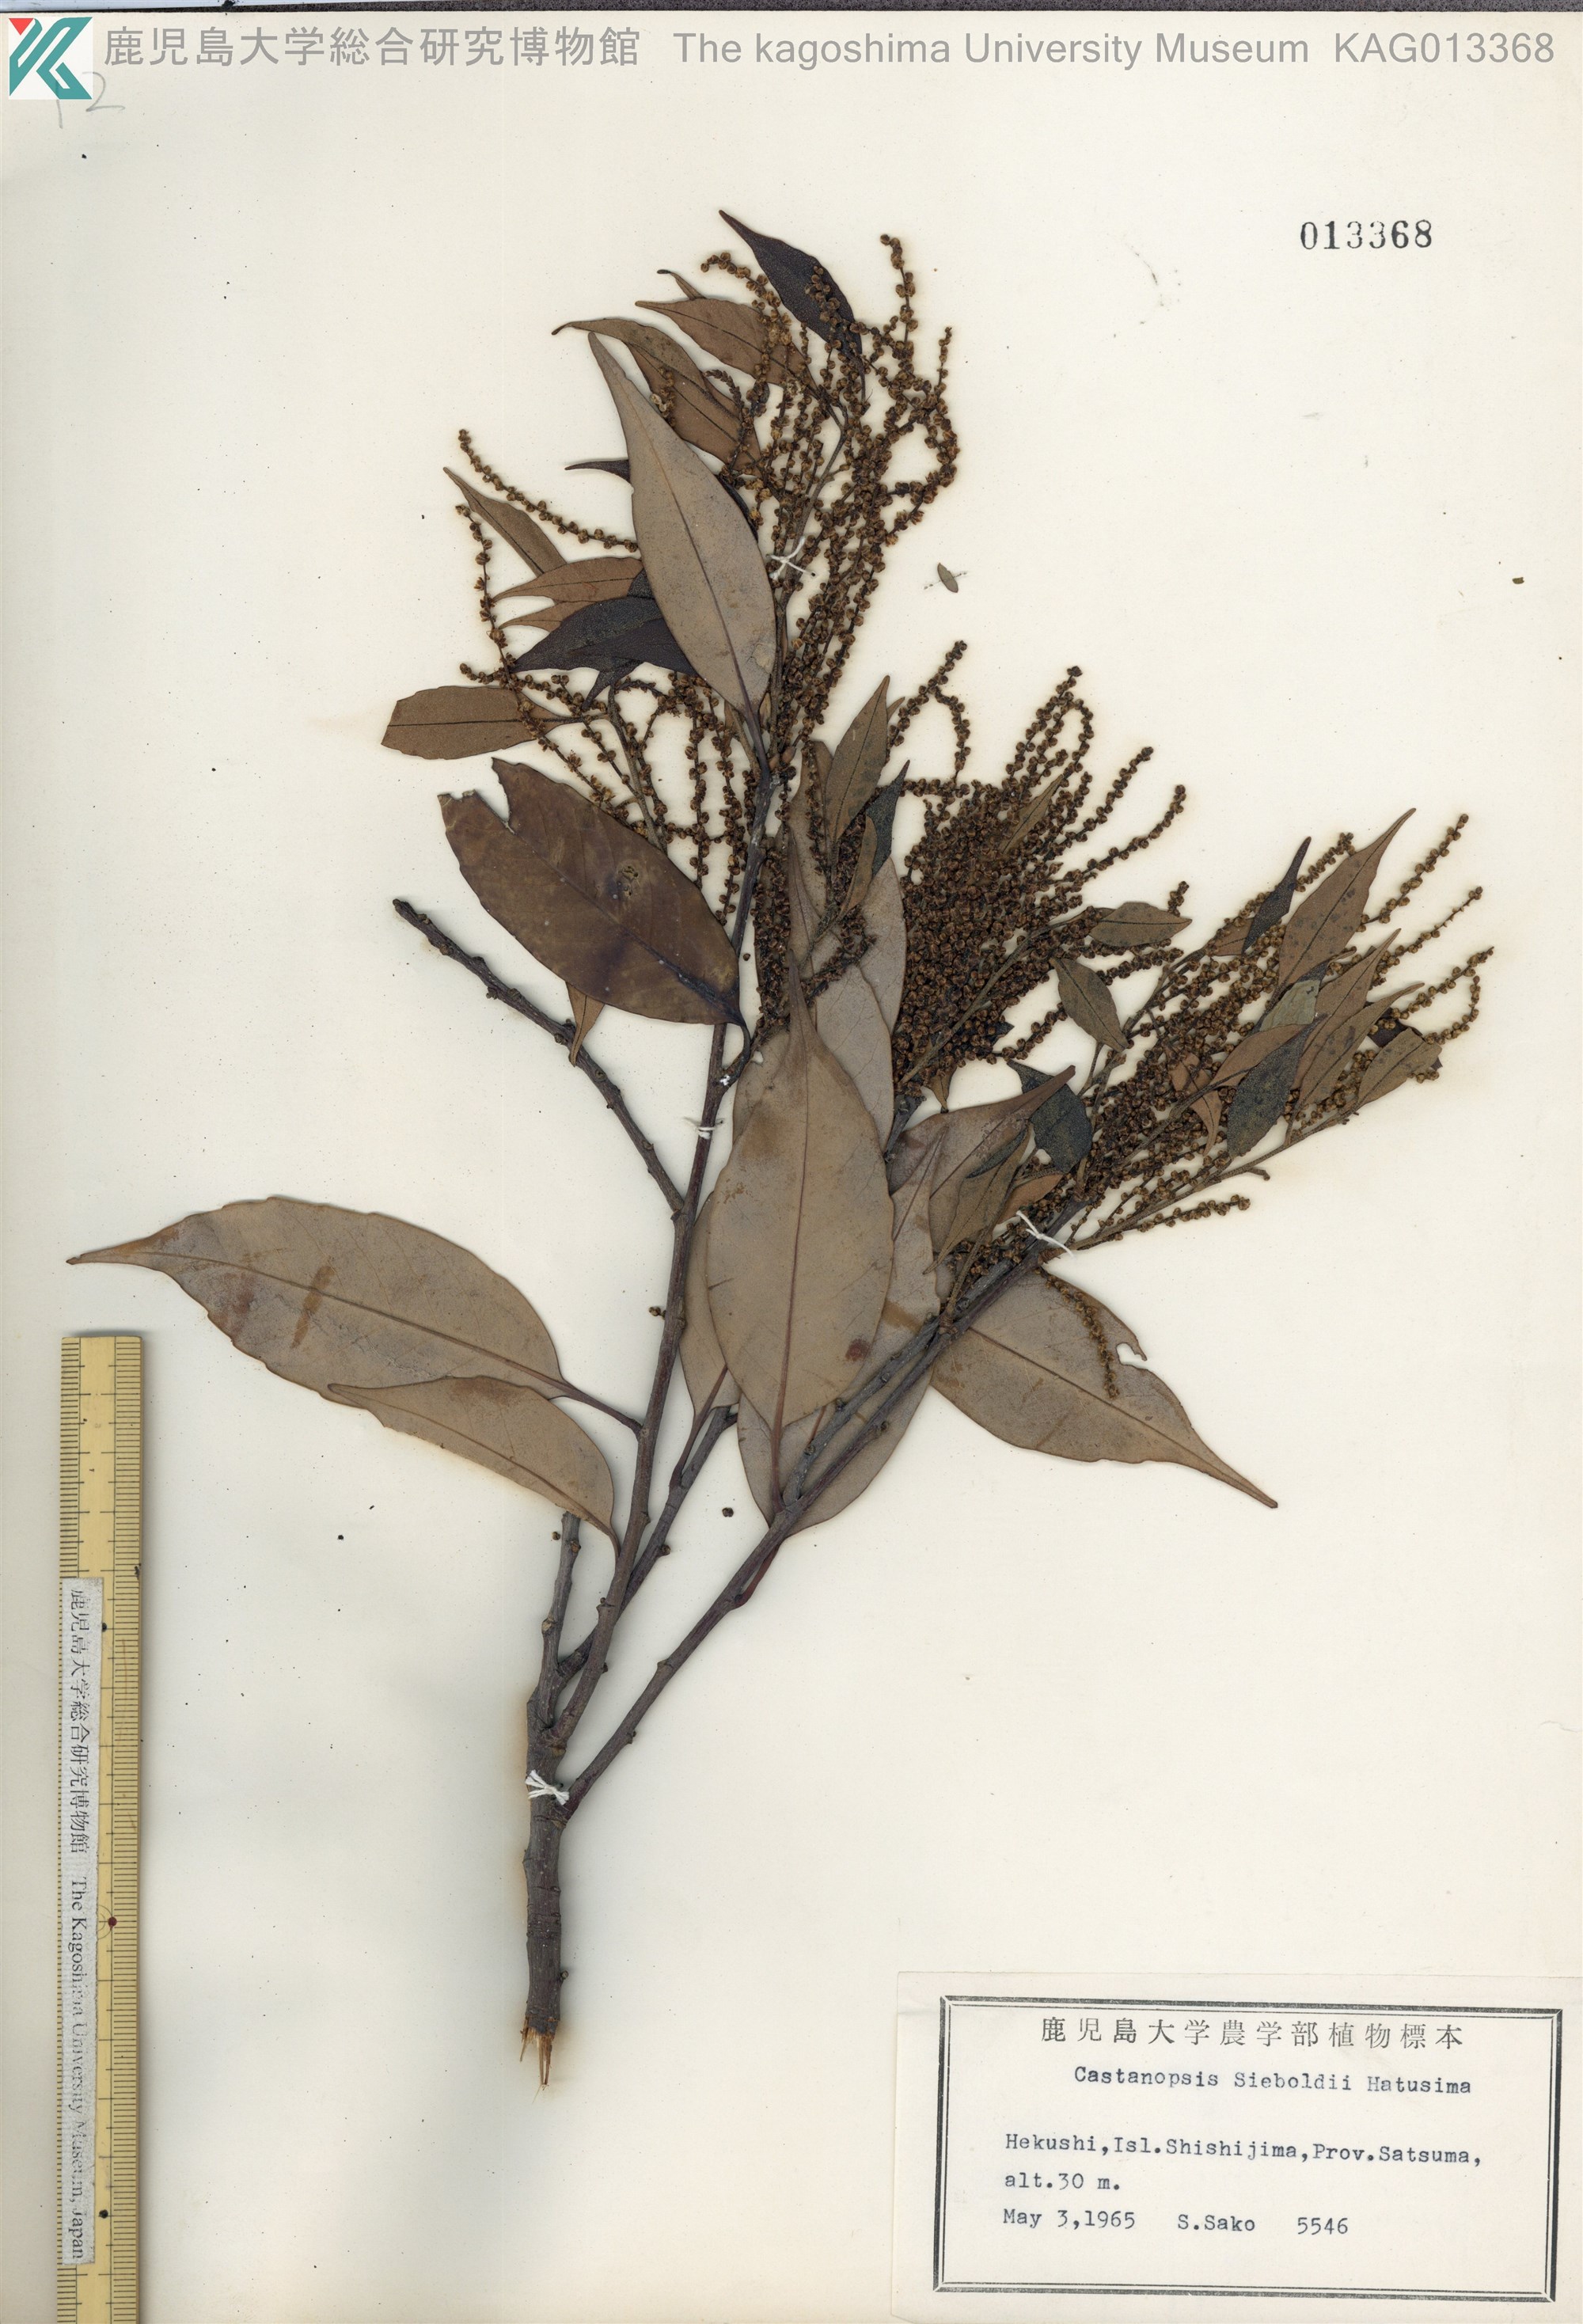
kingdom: Plantae
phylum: Tracheophyta
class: Magnoliopsida
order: Fagales
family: Fagaceae
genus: Castanopsis
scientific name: Castanopsis sieboldii
